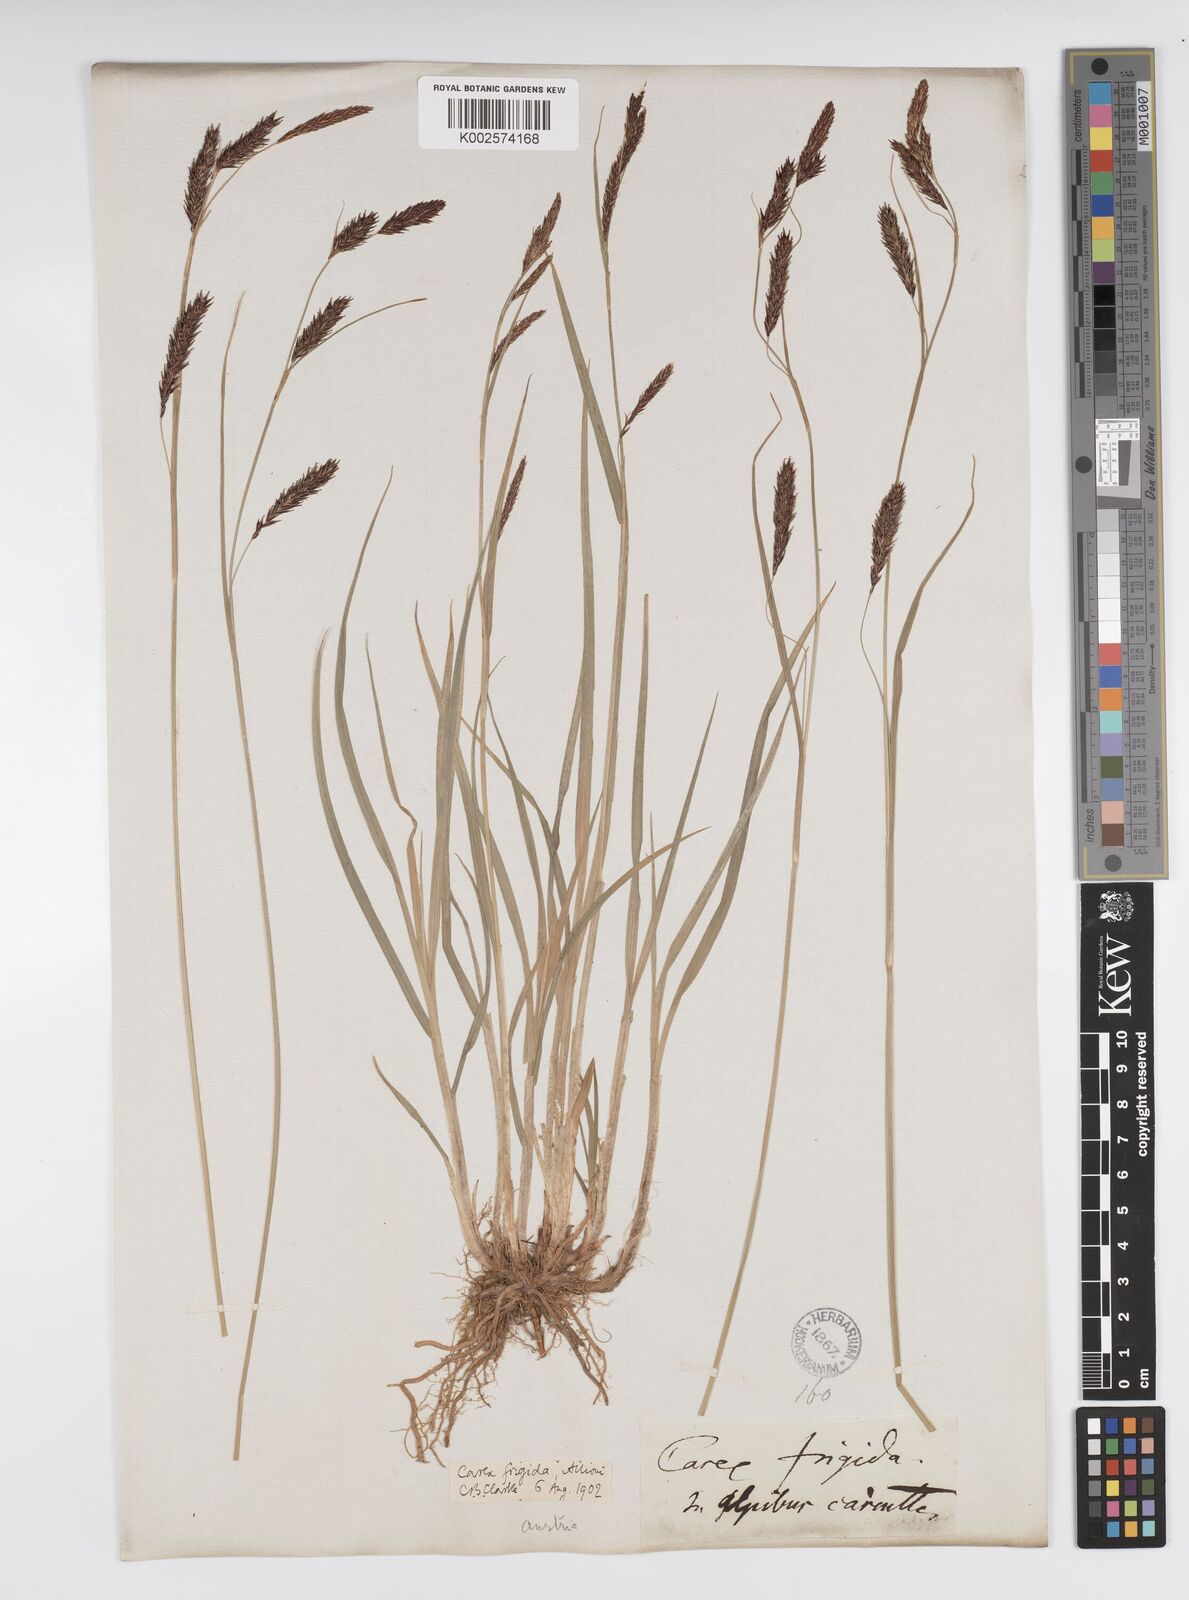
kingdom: Plantae
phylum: Tracheophyta
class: Liliopsida
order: Poales
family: Cyperaceae
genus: Carex
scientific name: Carex frigida
